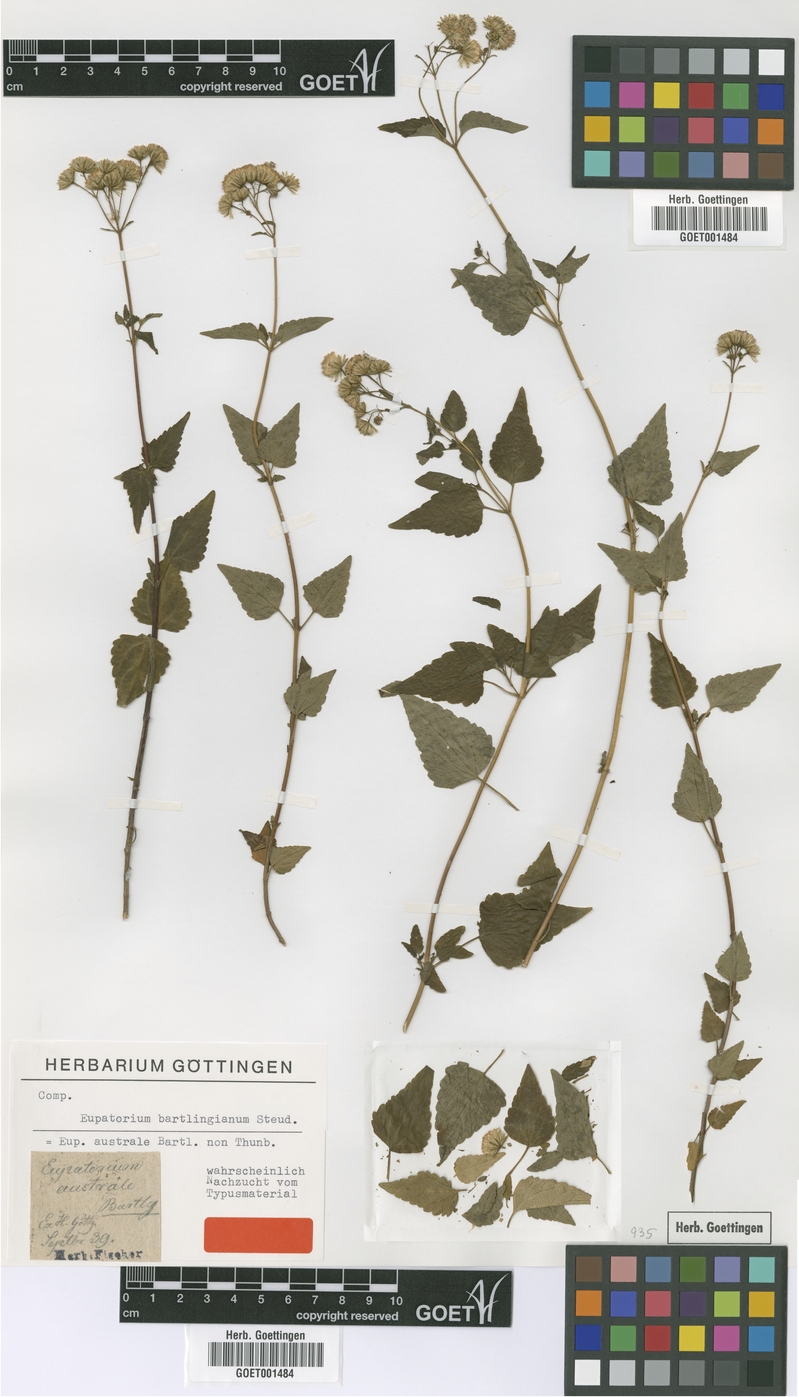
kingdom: Plantae
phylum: Tracheophyta
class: Magnoliopsida
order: Asterales
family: Asteraceae
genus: Ageratina
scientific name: Ageratina glechonophylla
